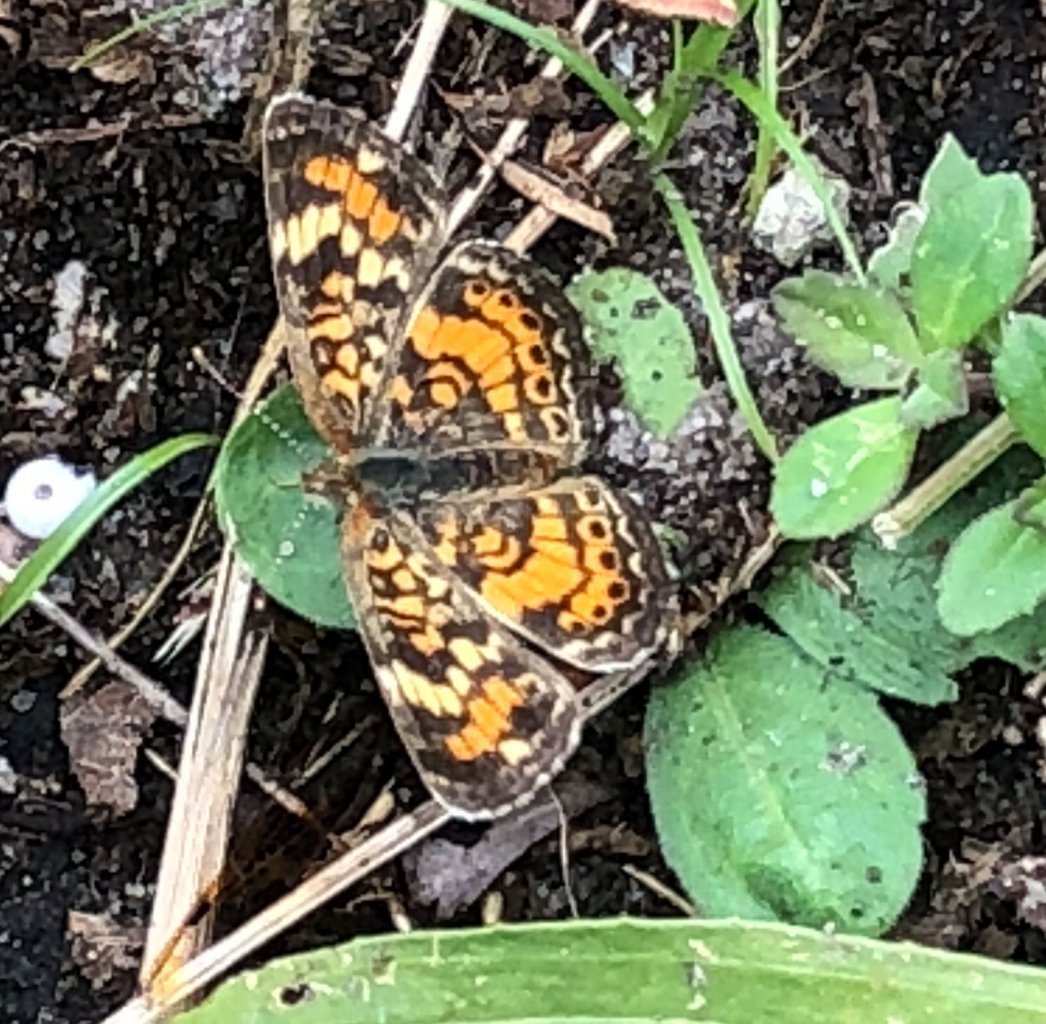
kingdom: Animalia
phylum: Arthropoda
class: Insecta
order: Lepidoptera
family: Nymphalidae
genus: Phyciodes
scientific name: Phyciodes tharos
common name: Pearl Crescent
